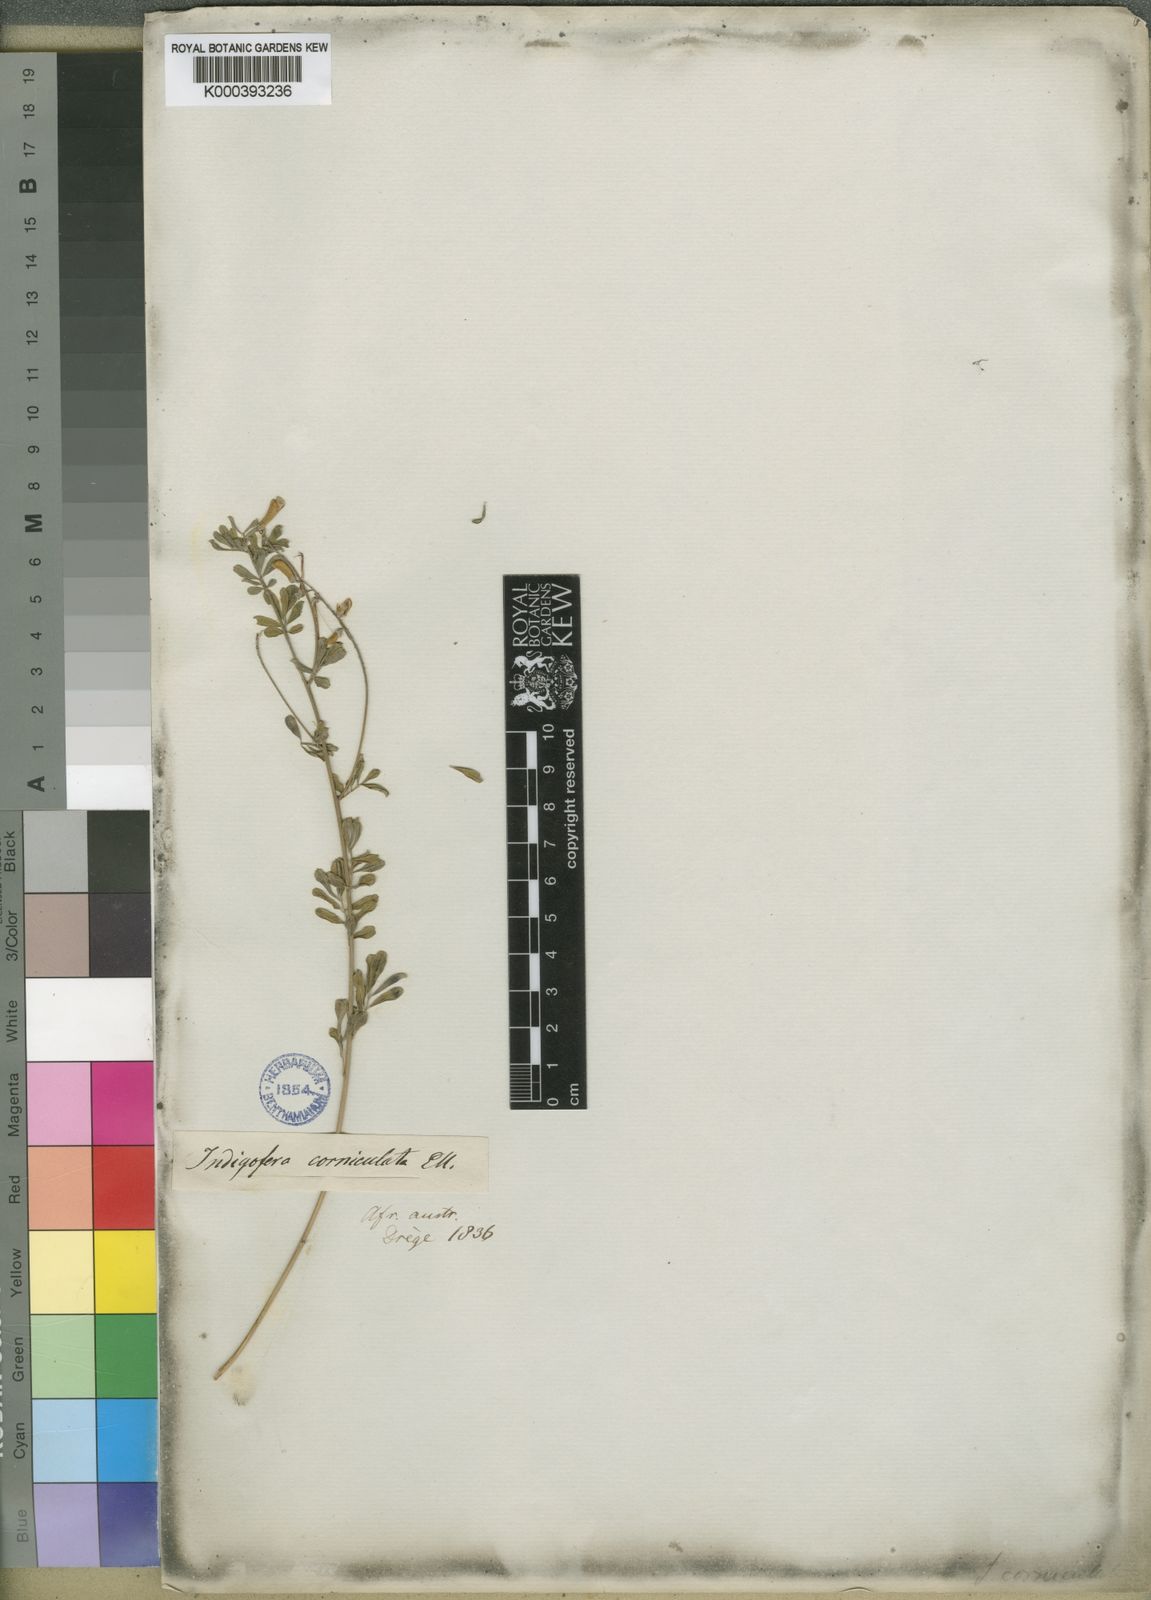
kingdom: Plantae
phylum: Tracheophyta
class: Magnoliopsida
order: Fabales
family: Fabaceae
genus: Indigofera
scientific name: Indigofera tristis
